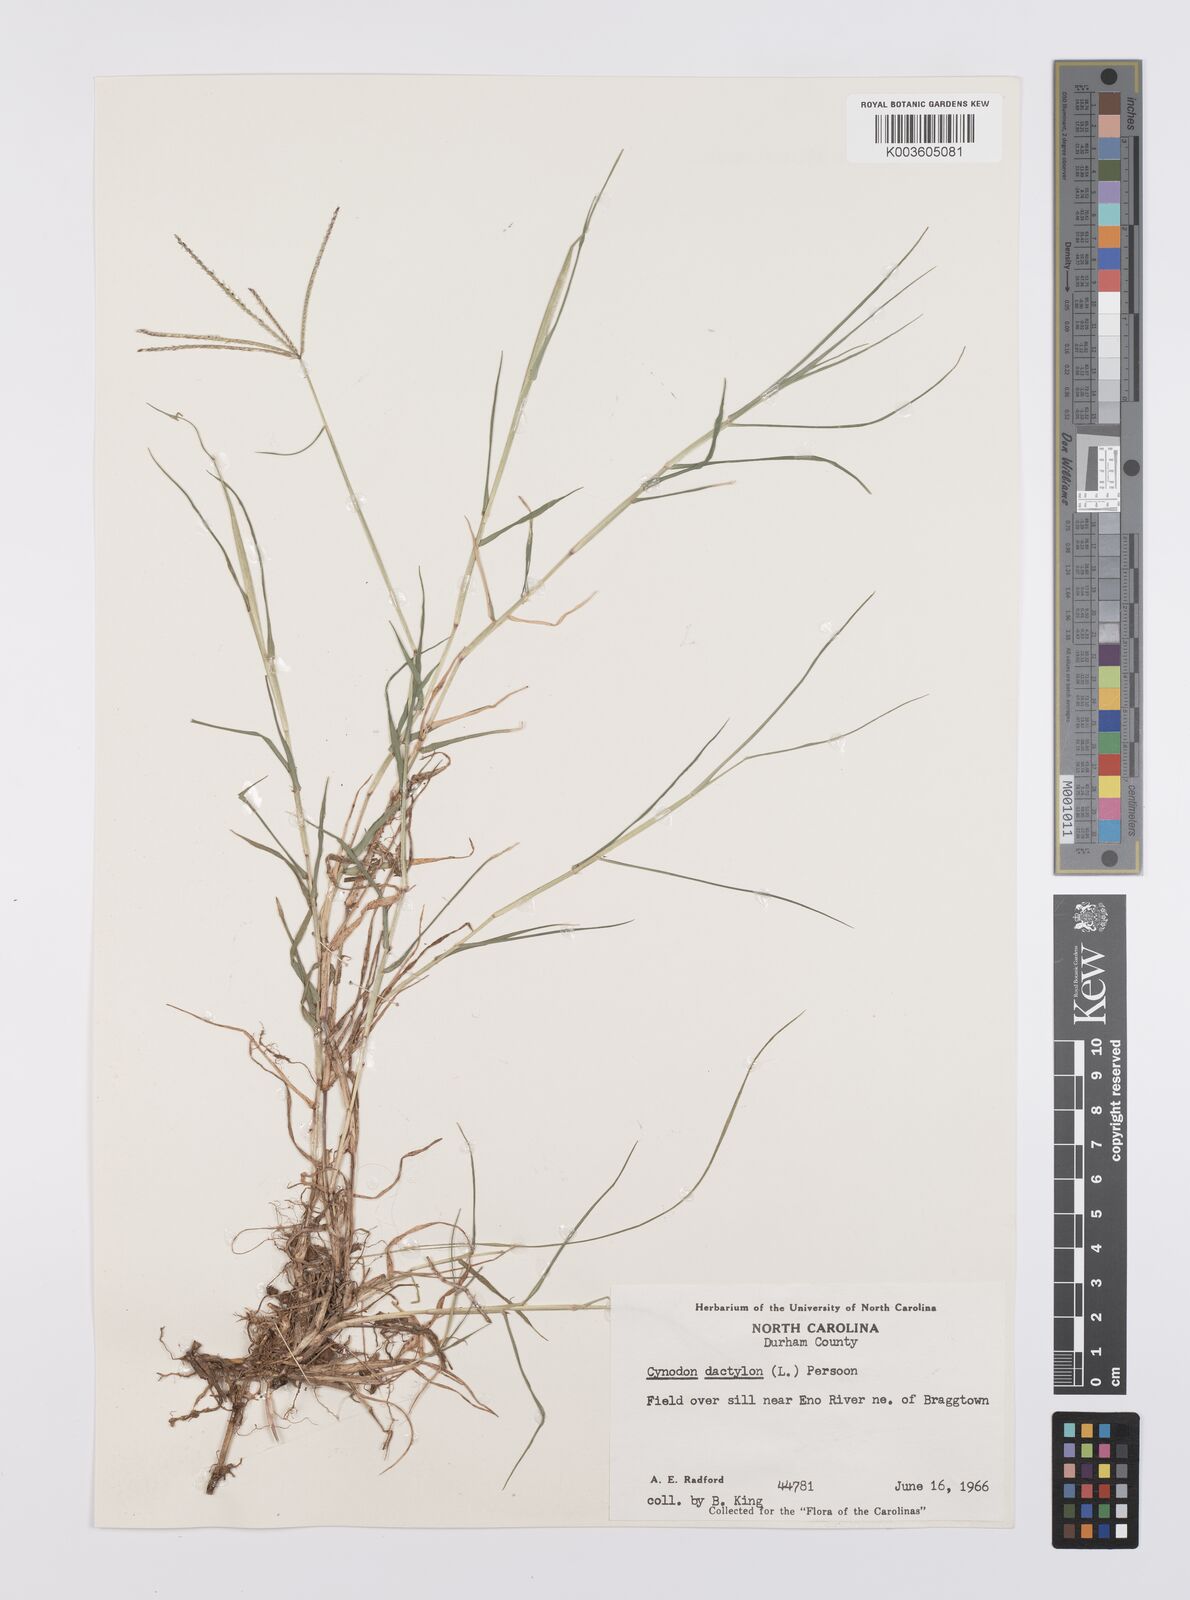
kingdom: Plantae
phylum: Tracheophyta
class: Liliopsida
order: Poales
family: Poaceae
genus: Cynodon
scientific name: Cynodon dactylon
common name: Bermuda grass
